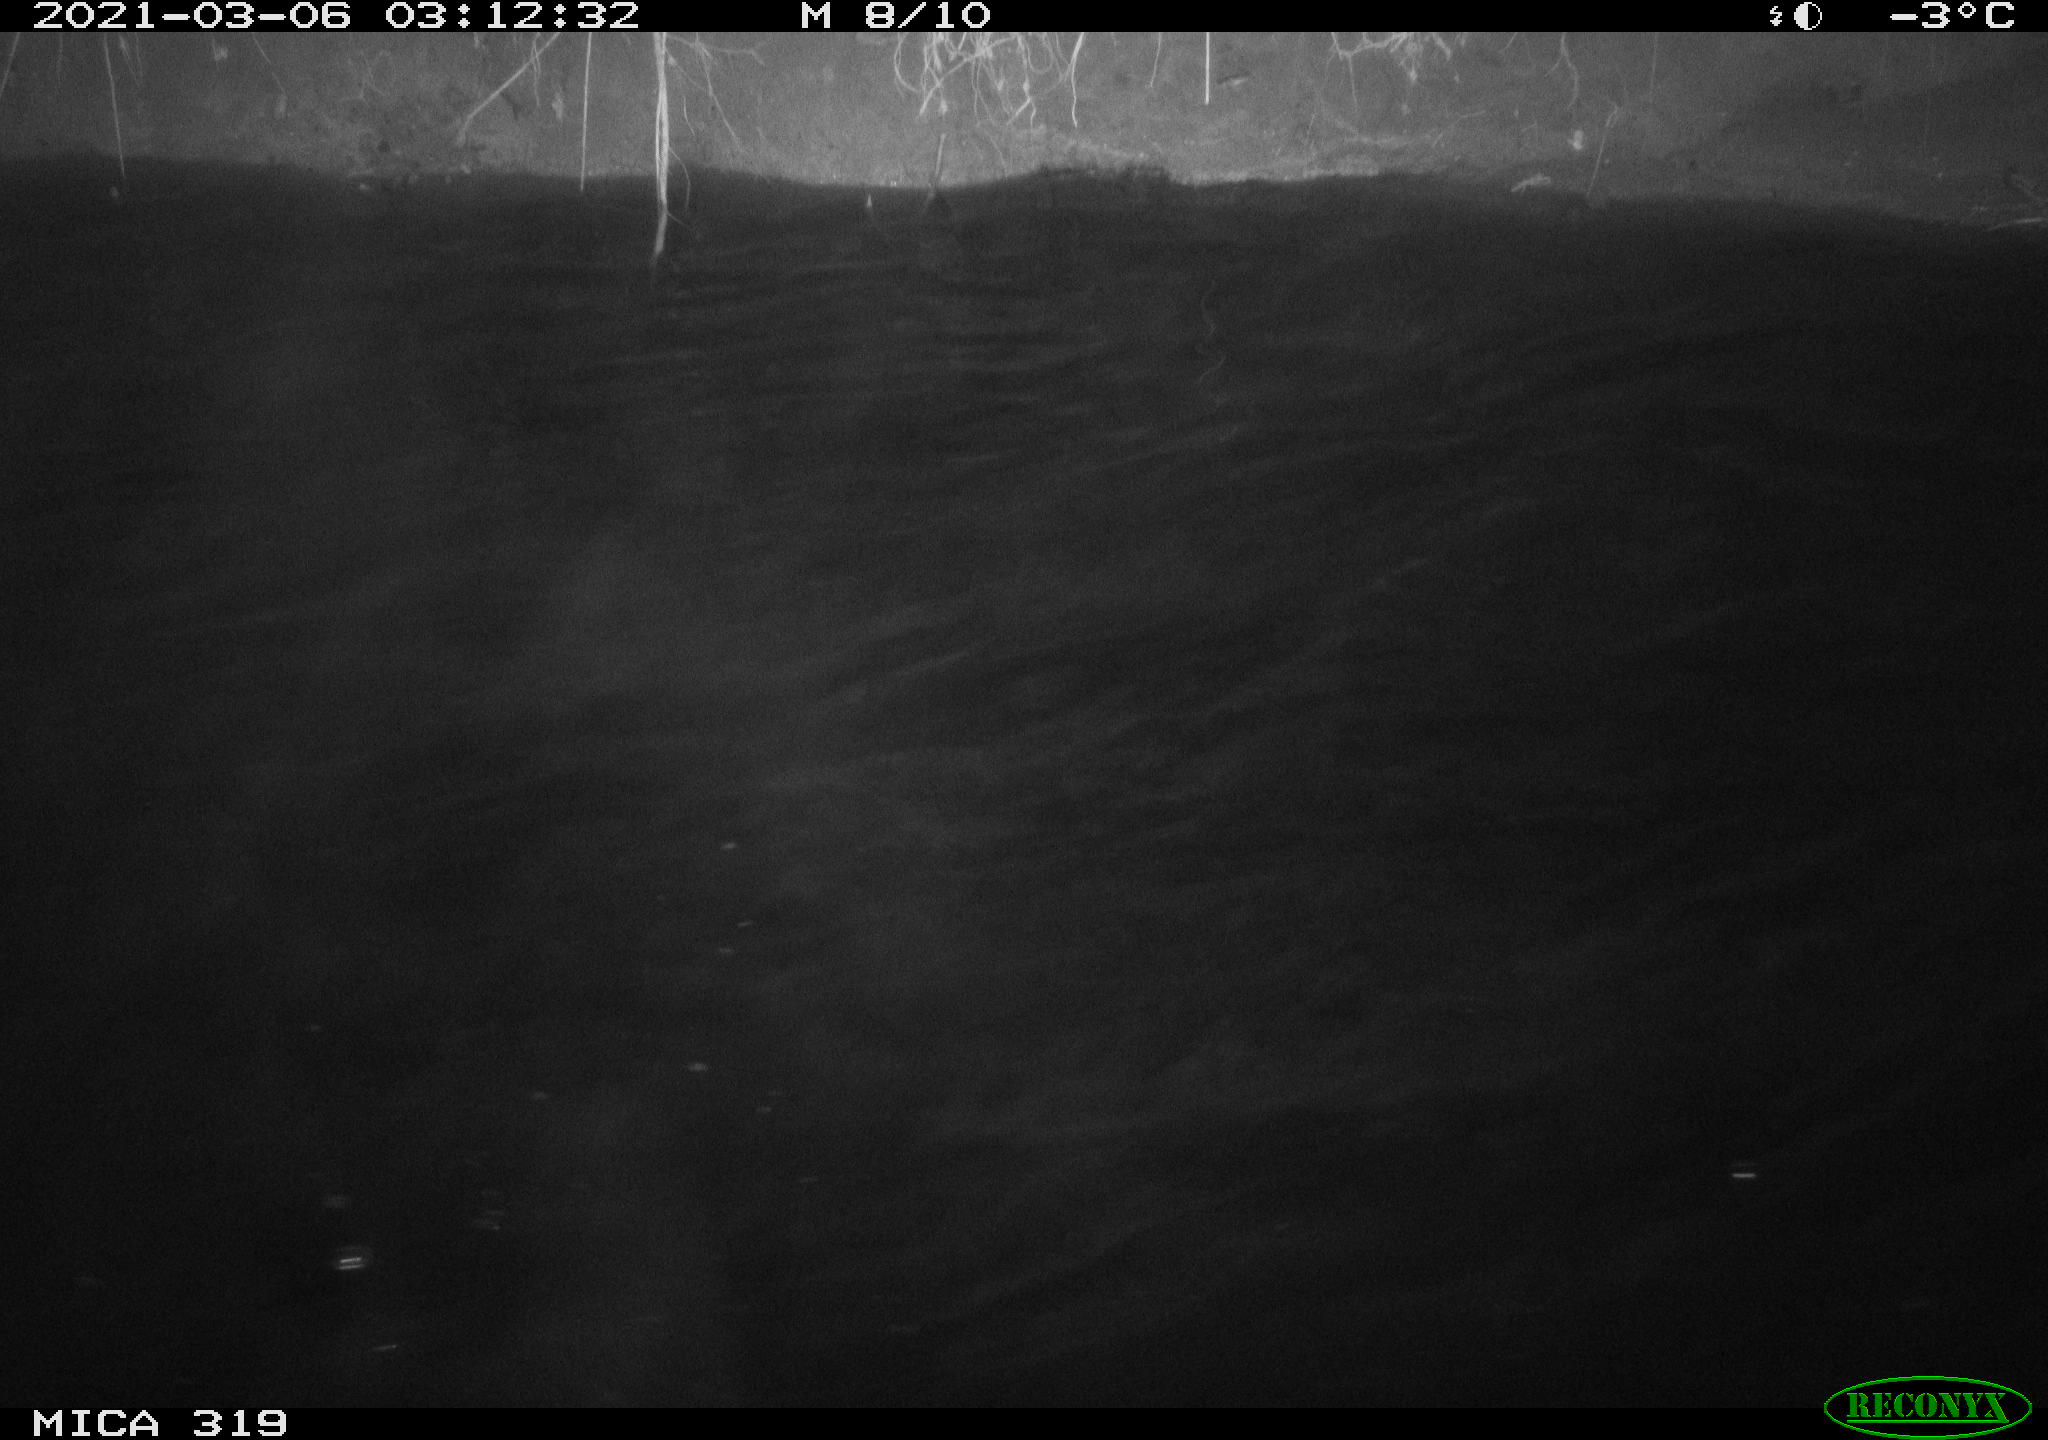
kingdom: Animalia
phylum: Chordata
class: Aves
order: Anseriformes
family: Anatidae
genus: Anas
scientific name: Anas platyrhynchos
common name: Mallard
